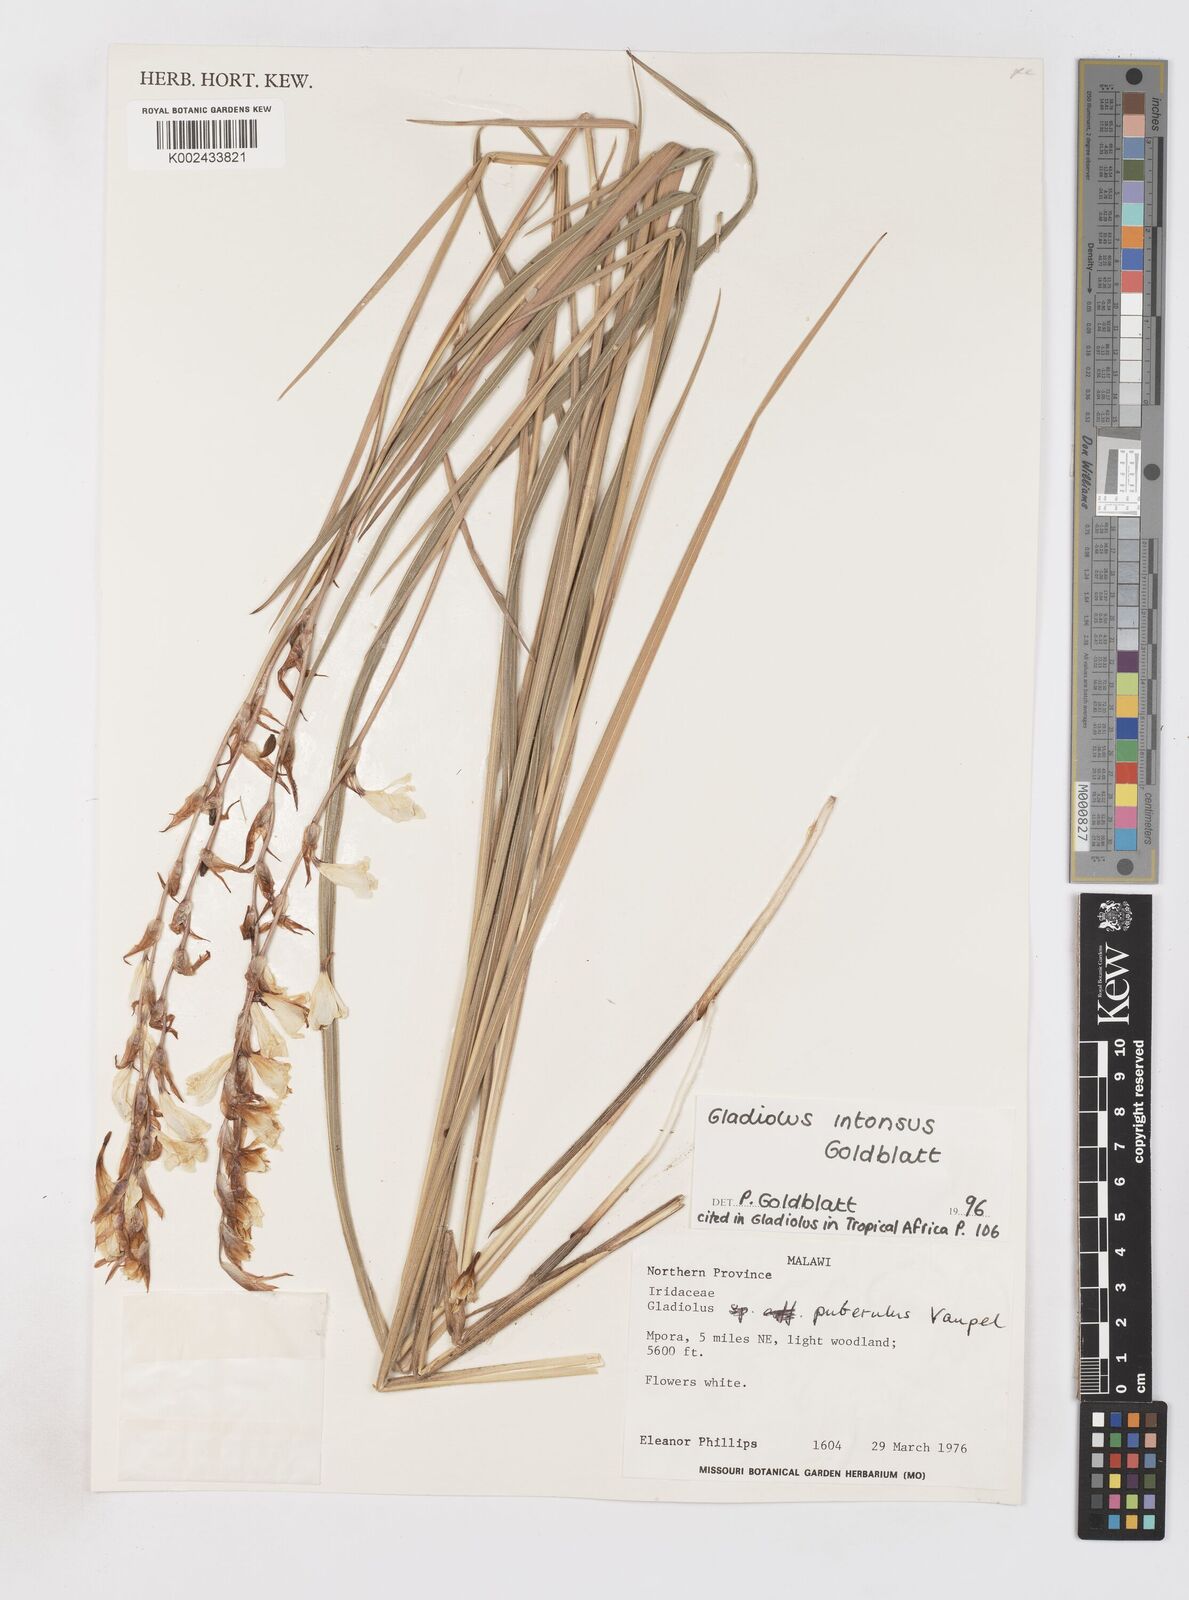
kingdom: Plantae
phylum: Tracheophyta
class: Liliopsida
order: Asparagales
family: Iridaceae
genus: Gladiolus
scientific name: Gladiolus intonsus
